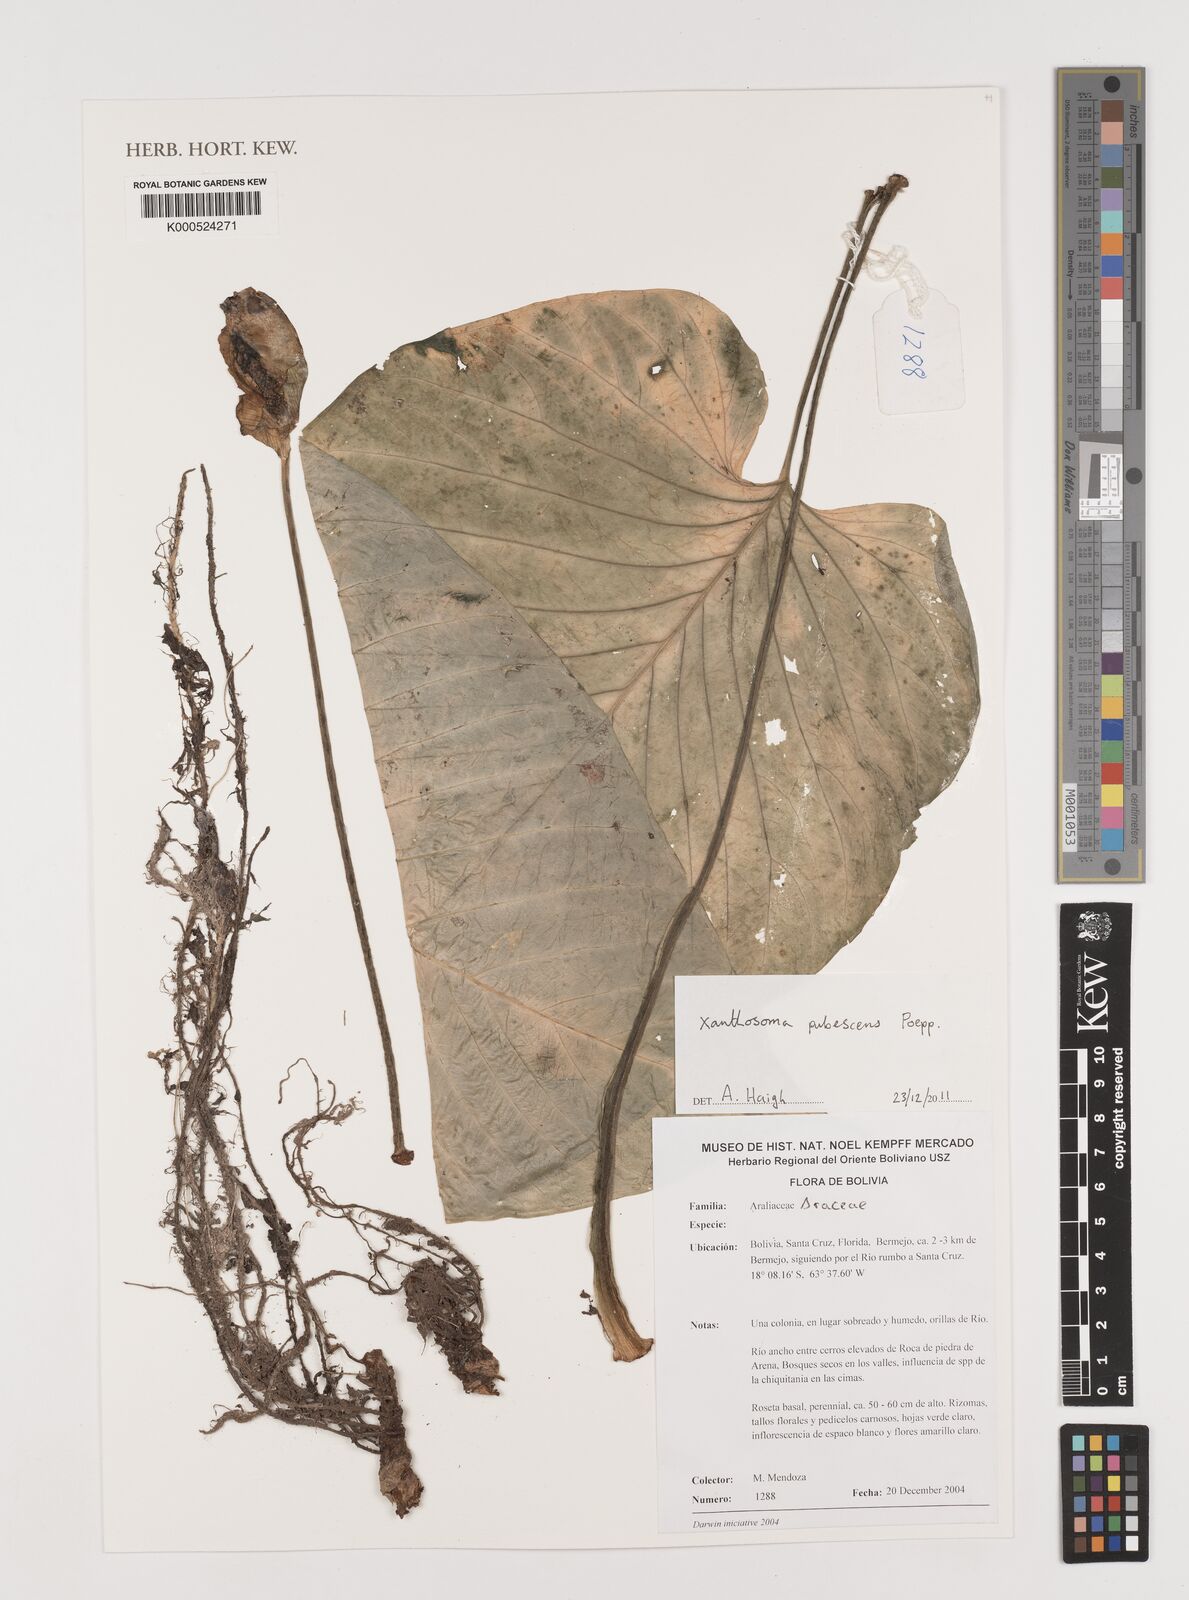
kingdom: Plantae
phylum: Tracheophyta
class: Liliopsida
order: Alismatales
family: Araceae
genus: Xanthosoma
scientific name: Xanthosoma pubescens
